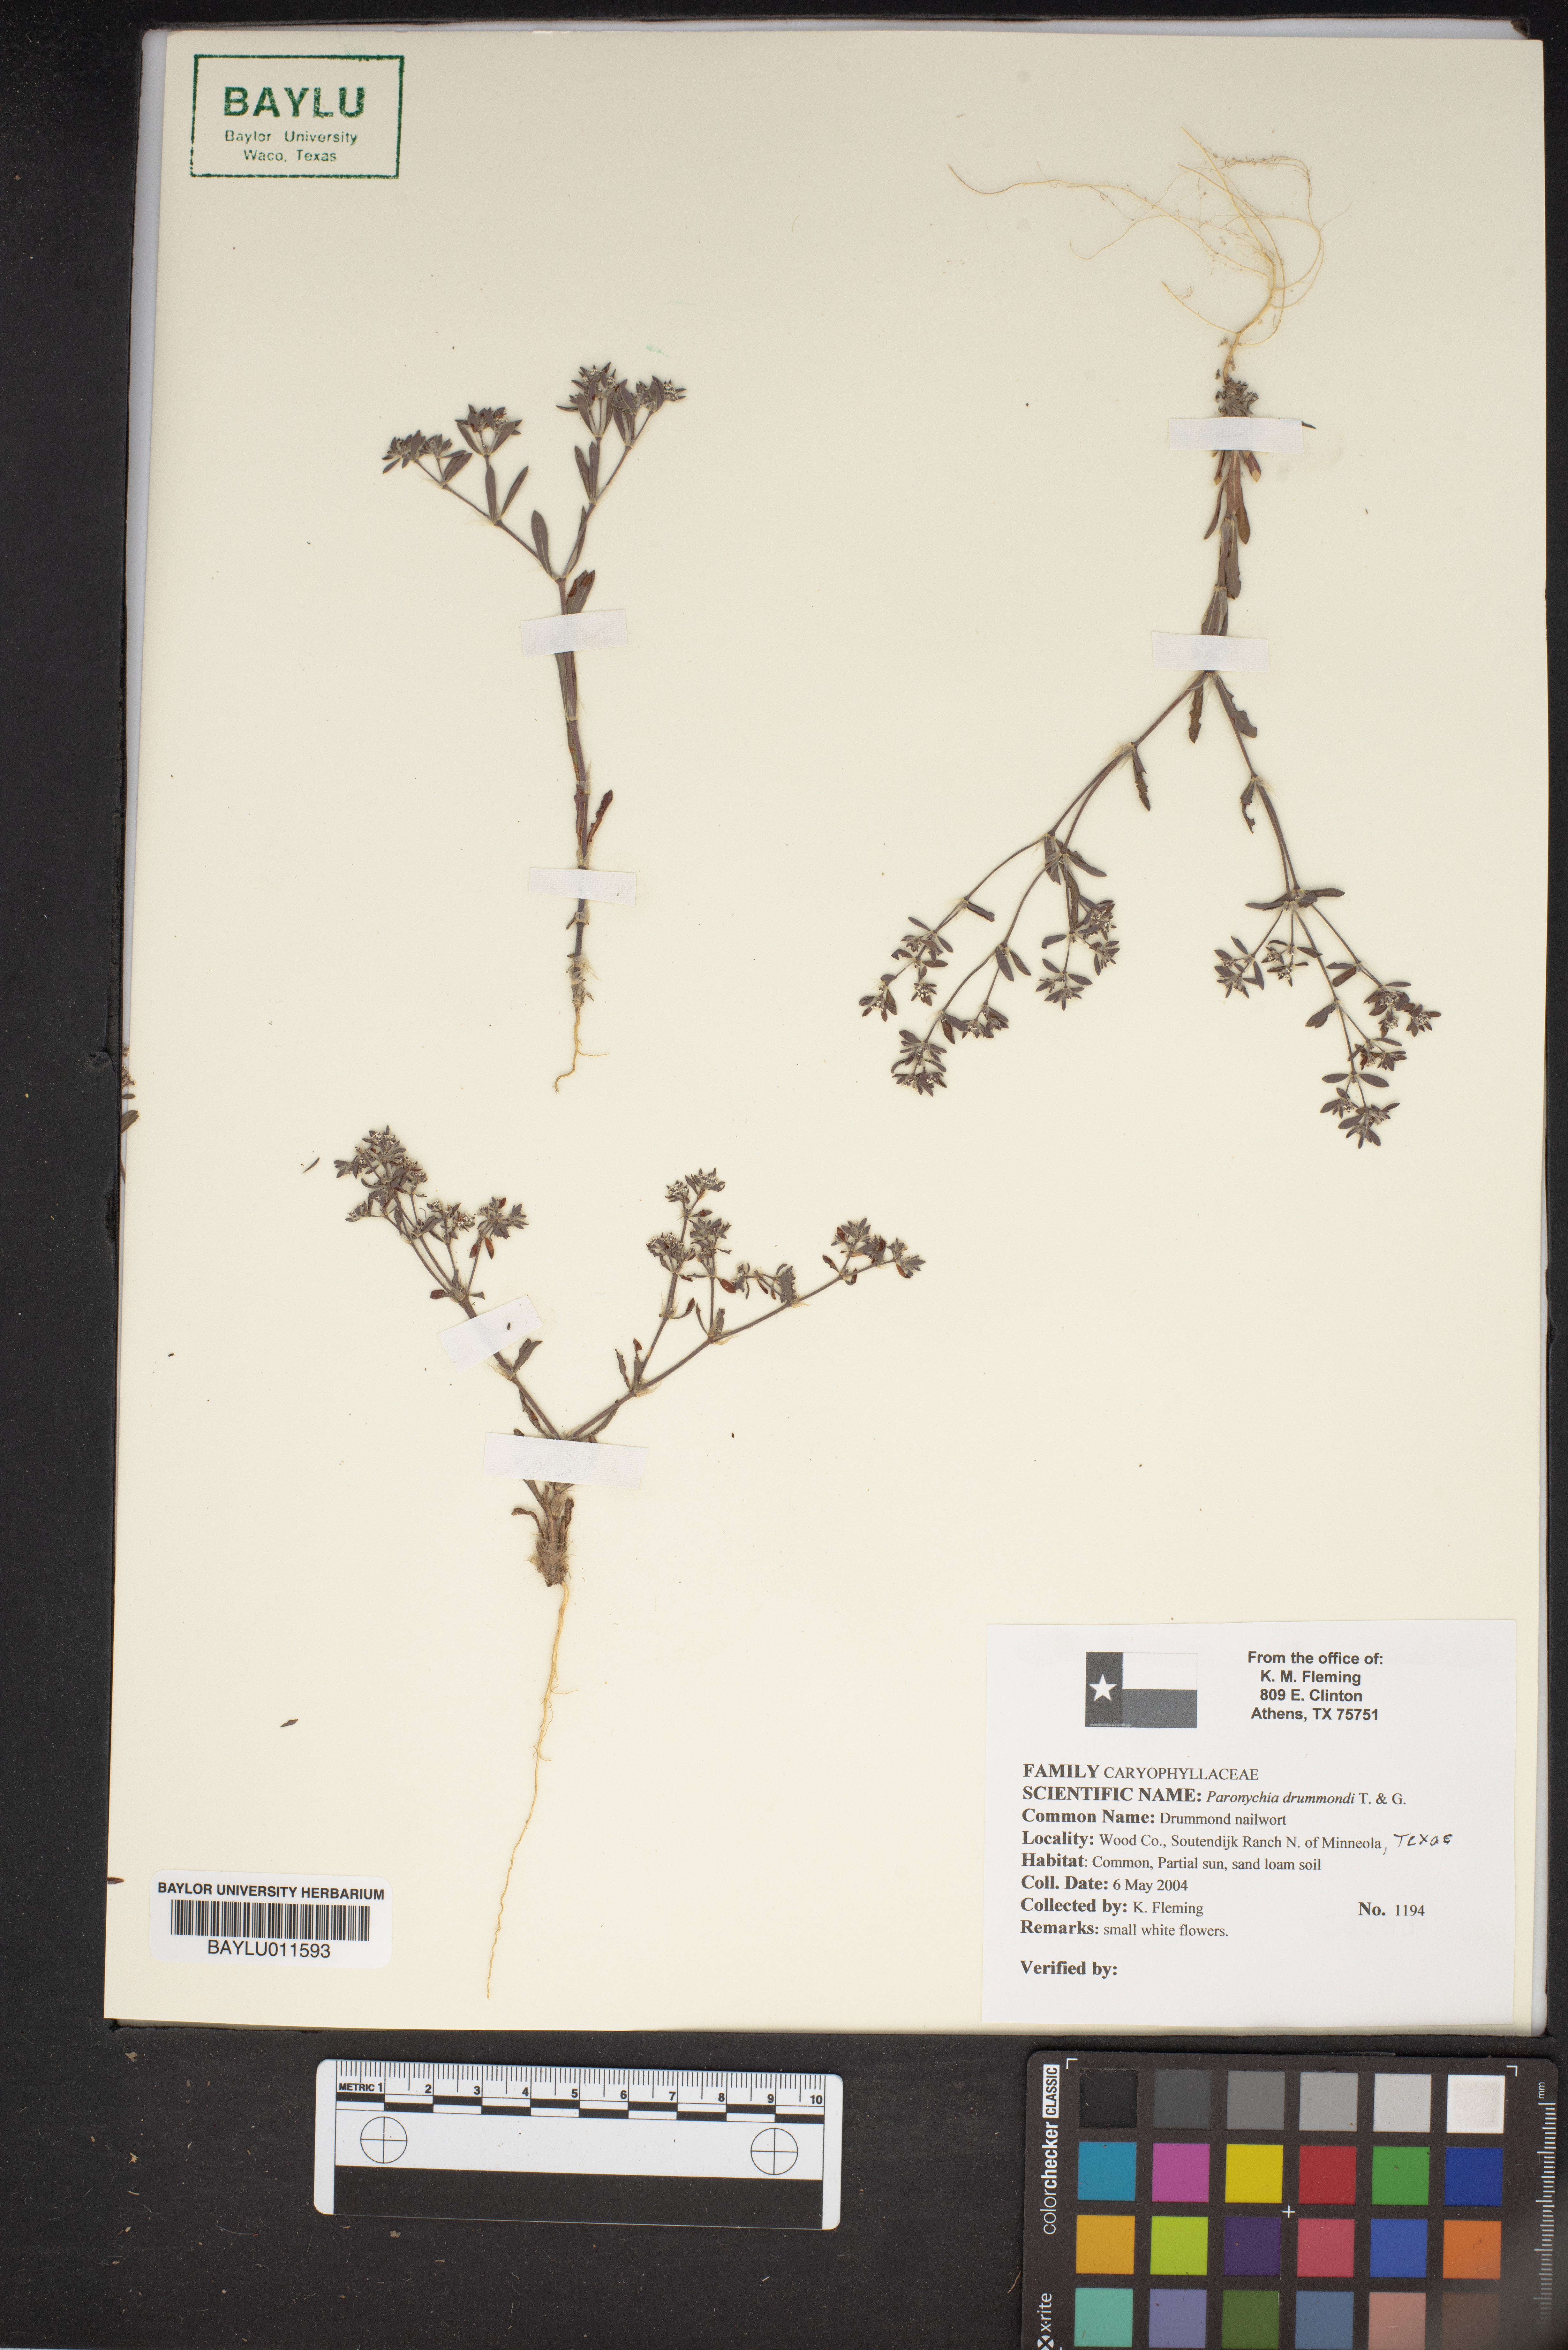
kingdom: Plantae
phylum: Tracheophyta
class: Magnoliopsida
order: Caryophyllales
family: Caryophyllaceae
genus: Paronychia
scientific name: Paronychia drummondii
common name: Drummond's nailwort
